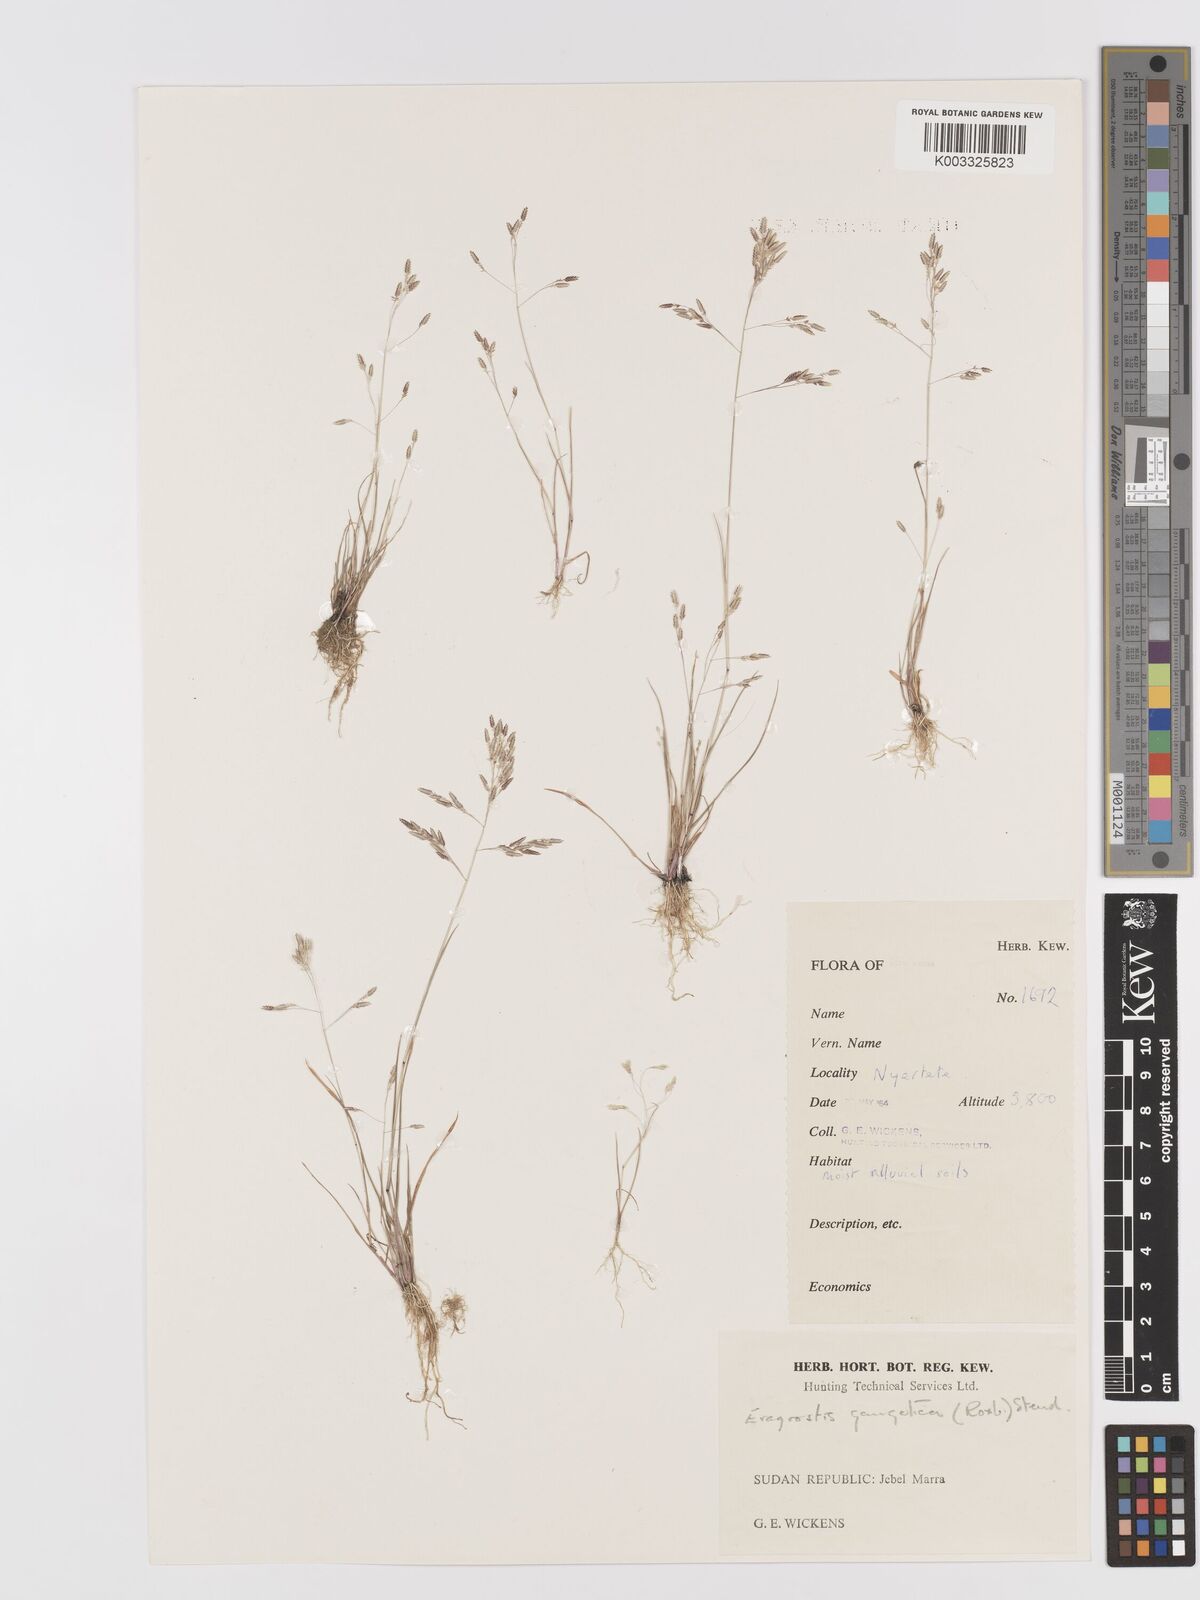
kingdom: Plantae
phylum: Tracheophyta
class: Liliopsida
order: Poales
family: Poaceae
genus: Eragrostis
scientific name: Eragrostis gangetica
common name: Slimflower lovegrass
